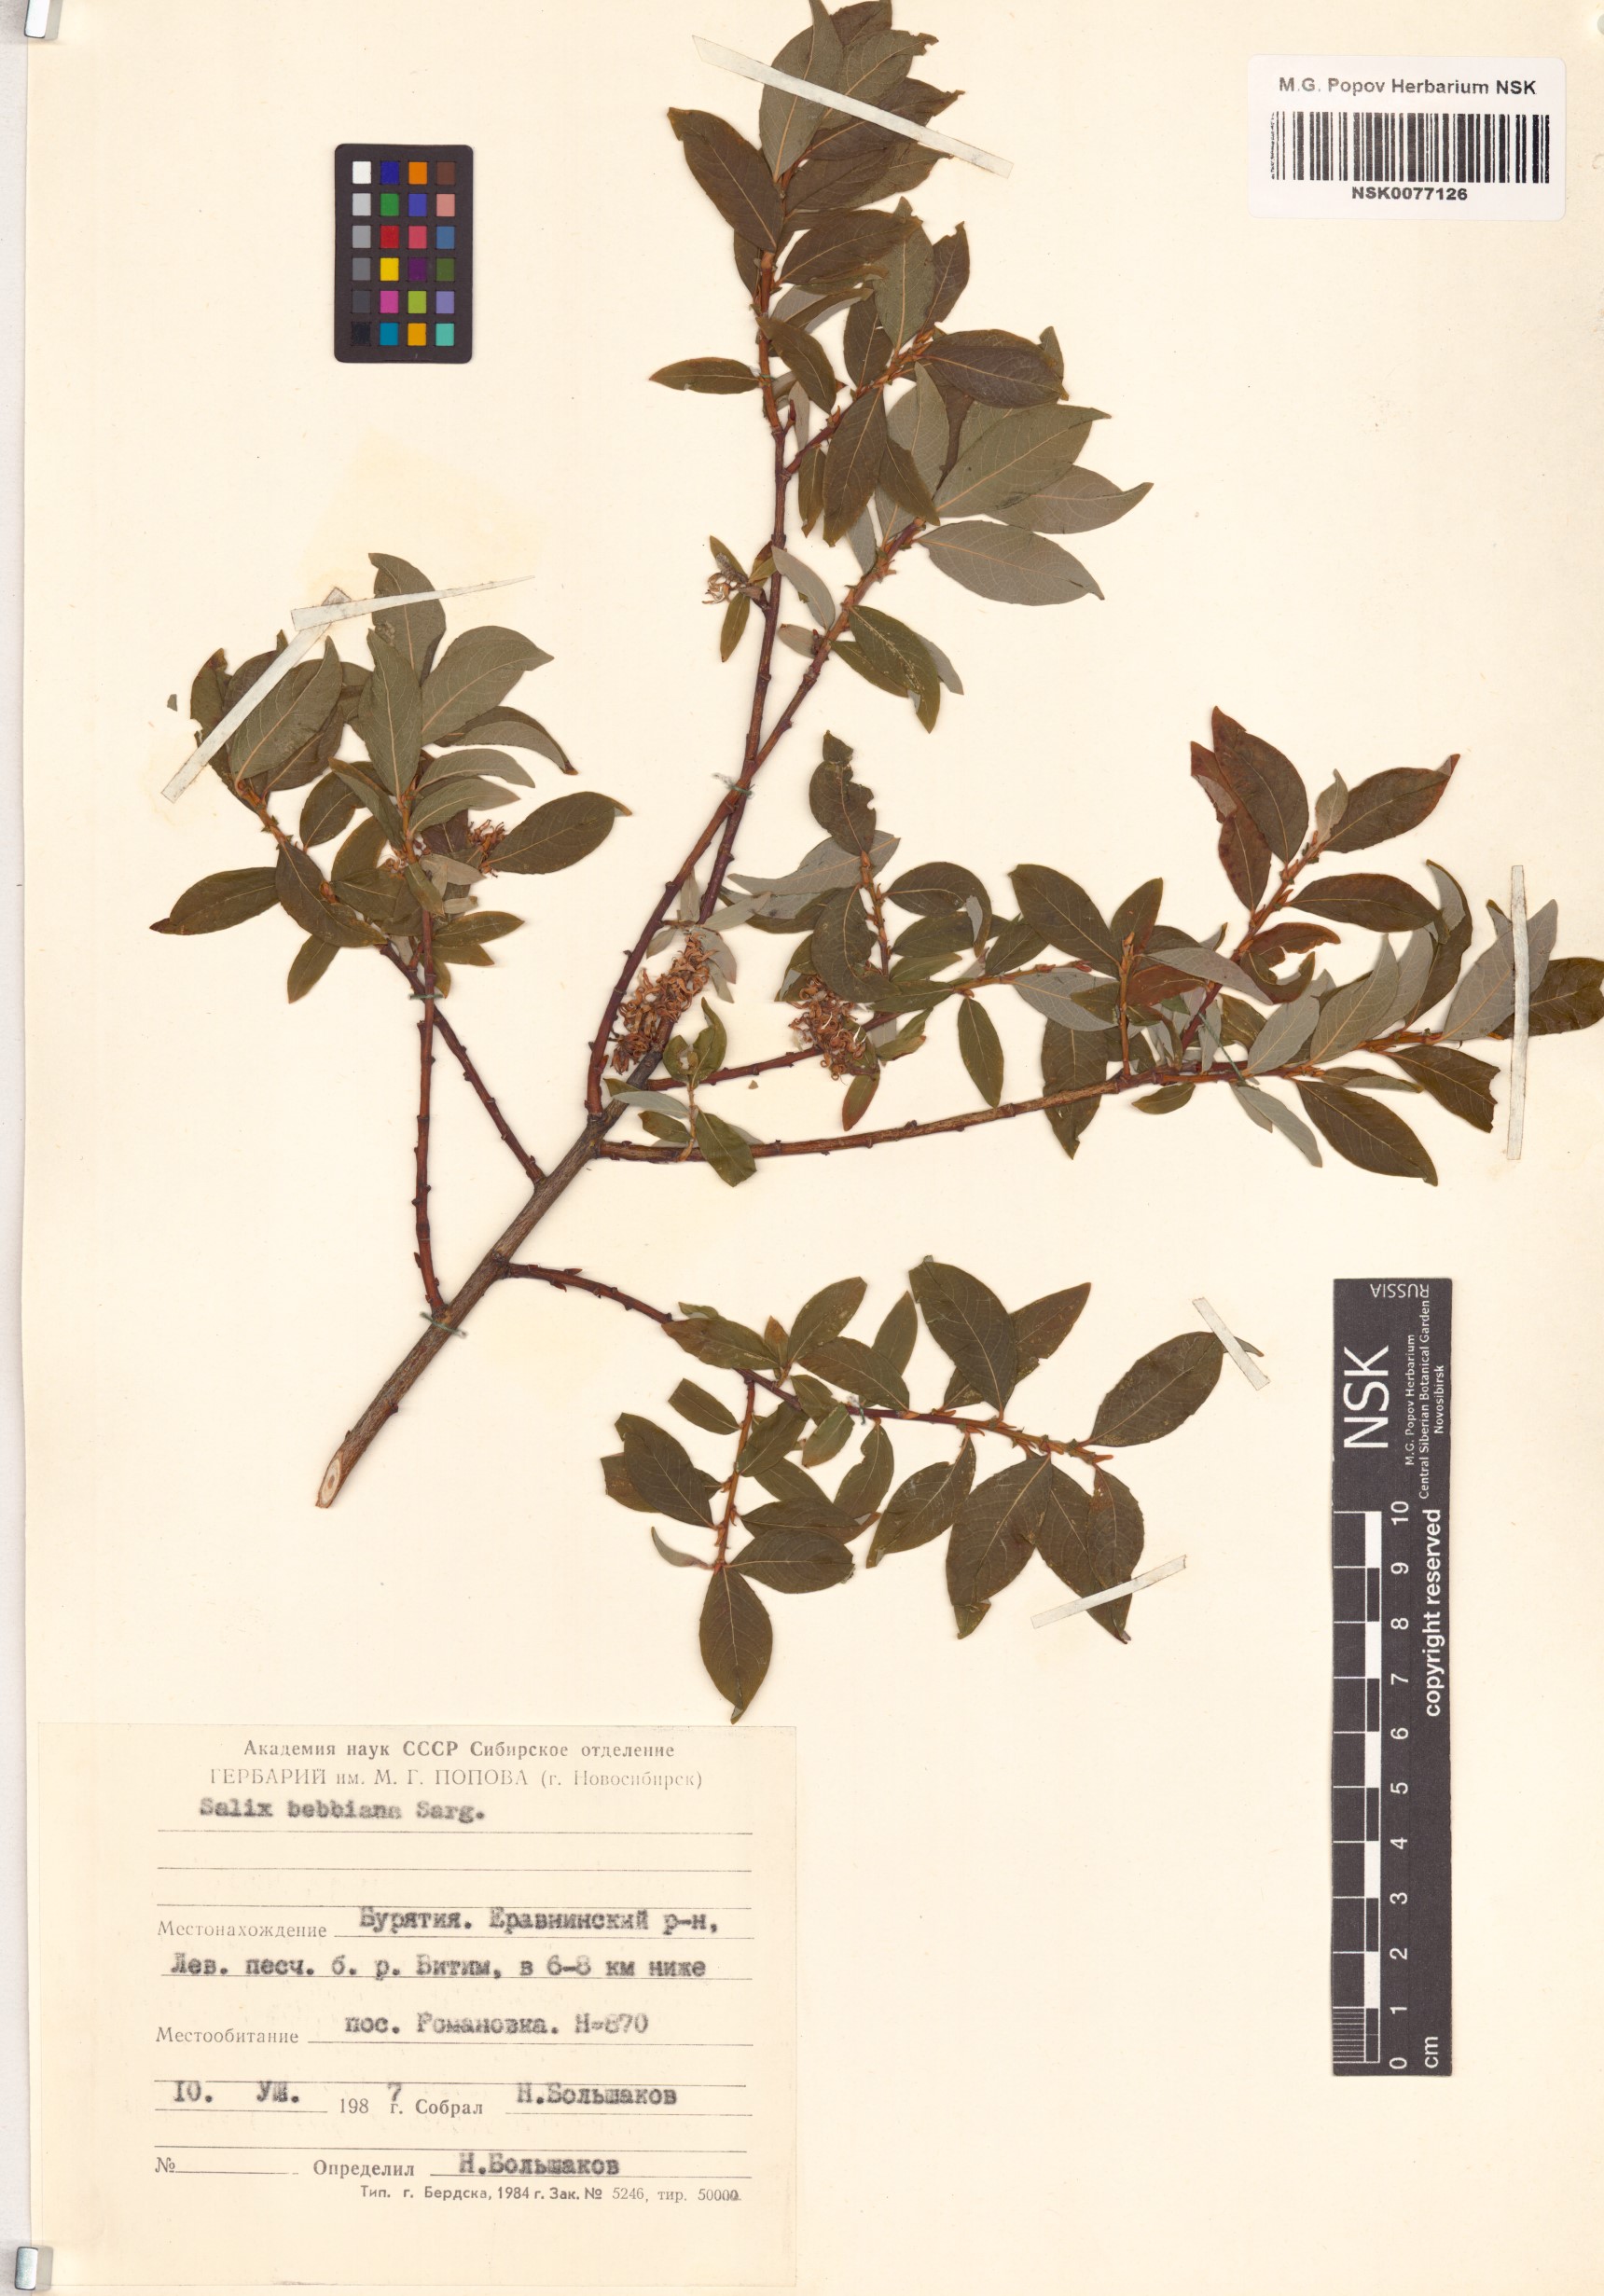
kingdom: Plantae
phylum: Tracheophyta
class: Magnoliopsida
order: Malpighiales
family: Salicaceae
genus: Salix
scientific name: Salix bebbiana
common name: Bebb's willow
